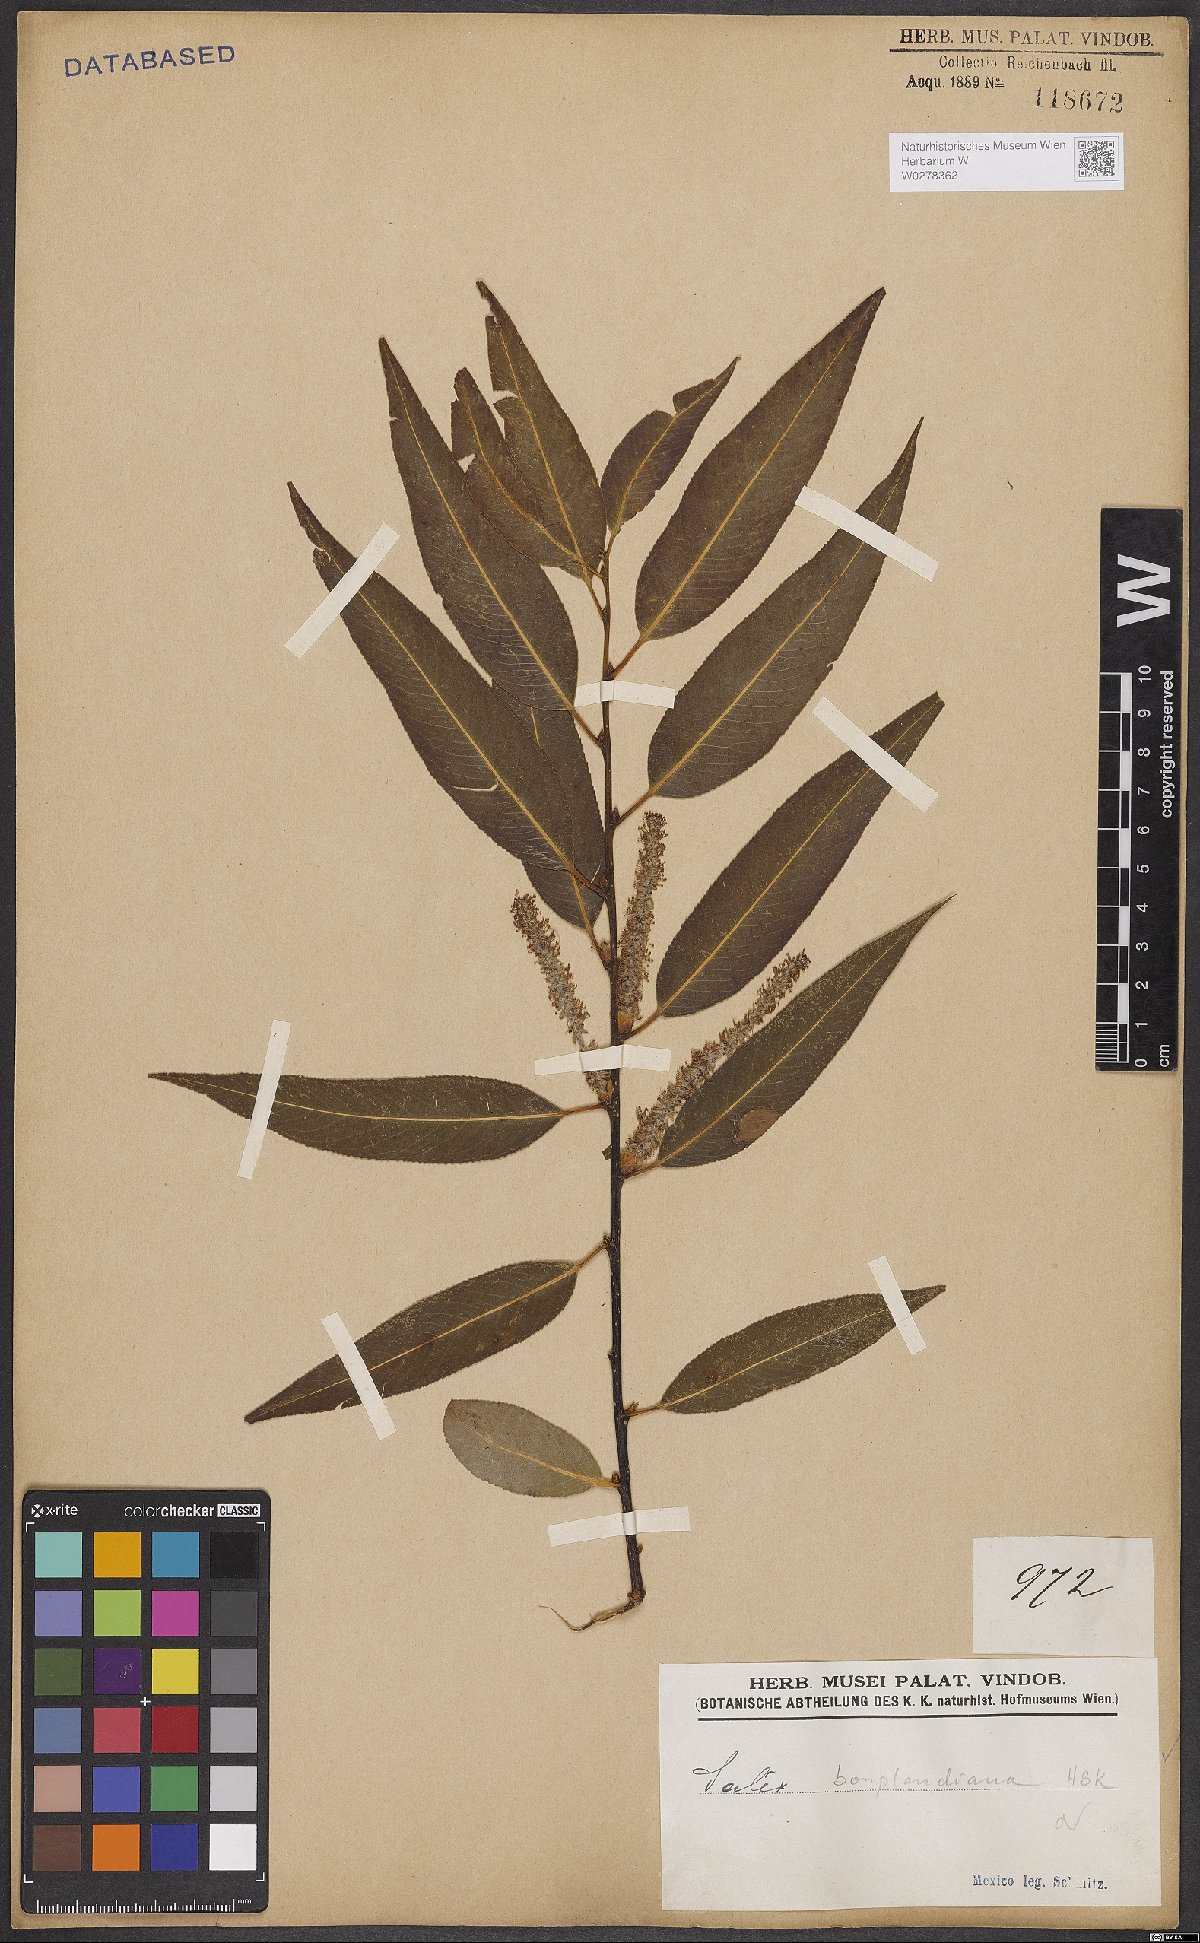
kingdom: Plantae
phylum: Tracheophyta
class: Magnoliopsida
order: Malpighiales
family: Salicaceae
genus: Salix
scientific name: Salix bonplandiana
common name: Bonpland’s willow
